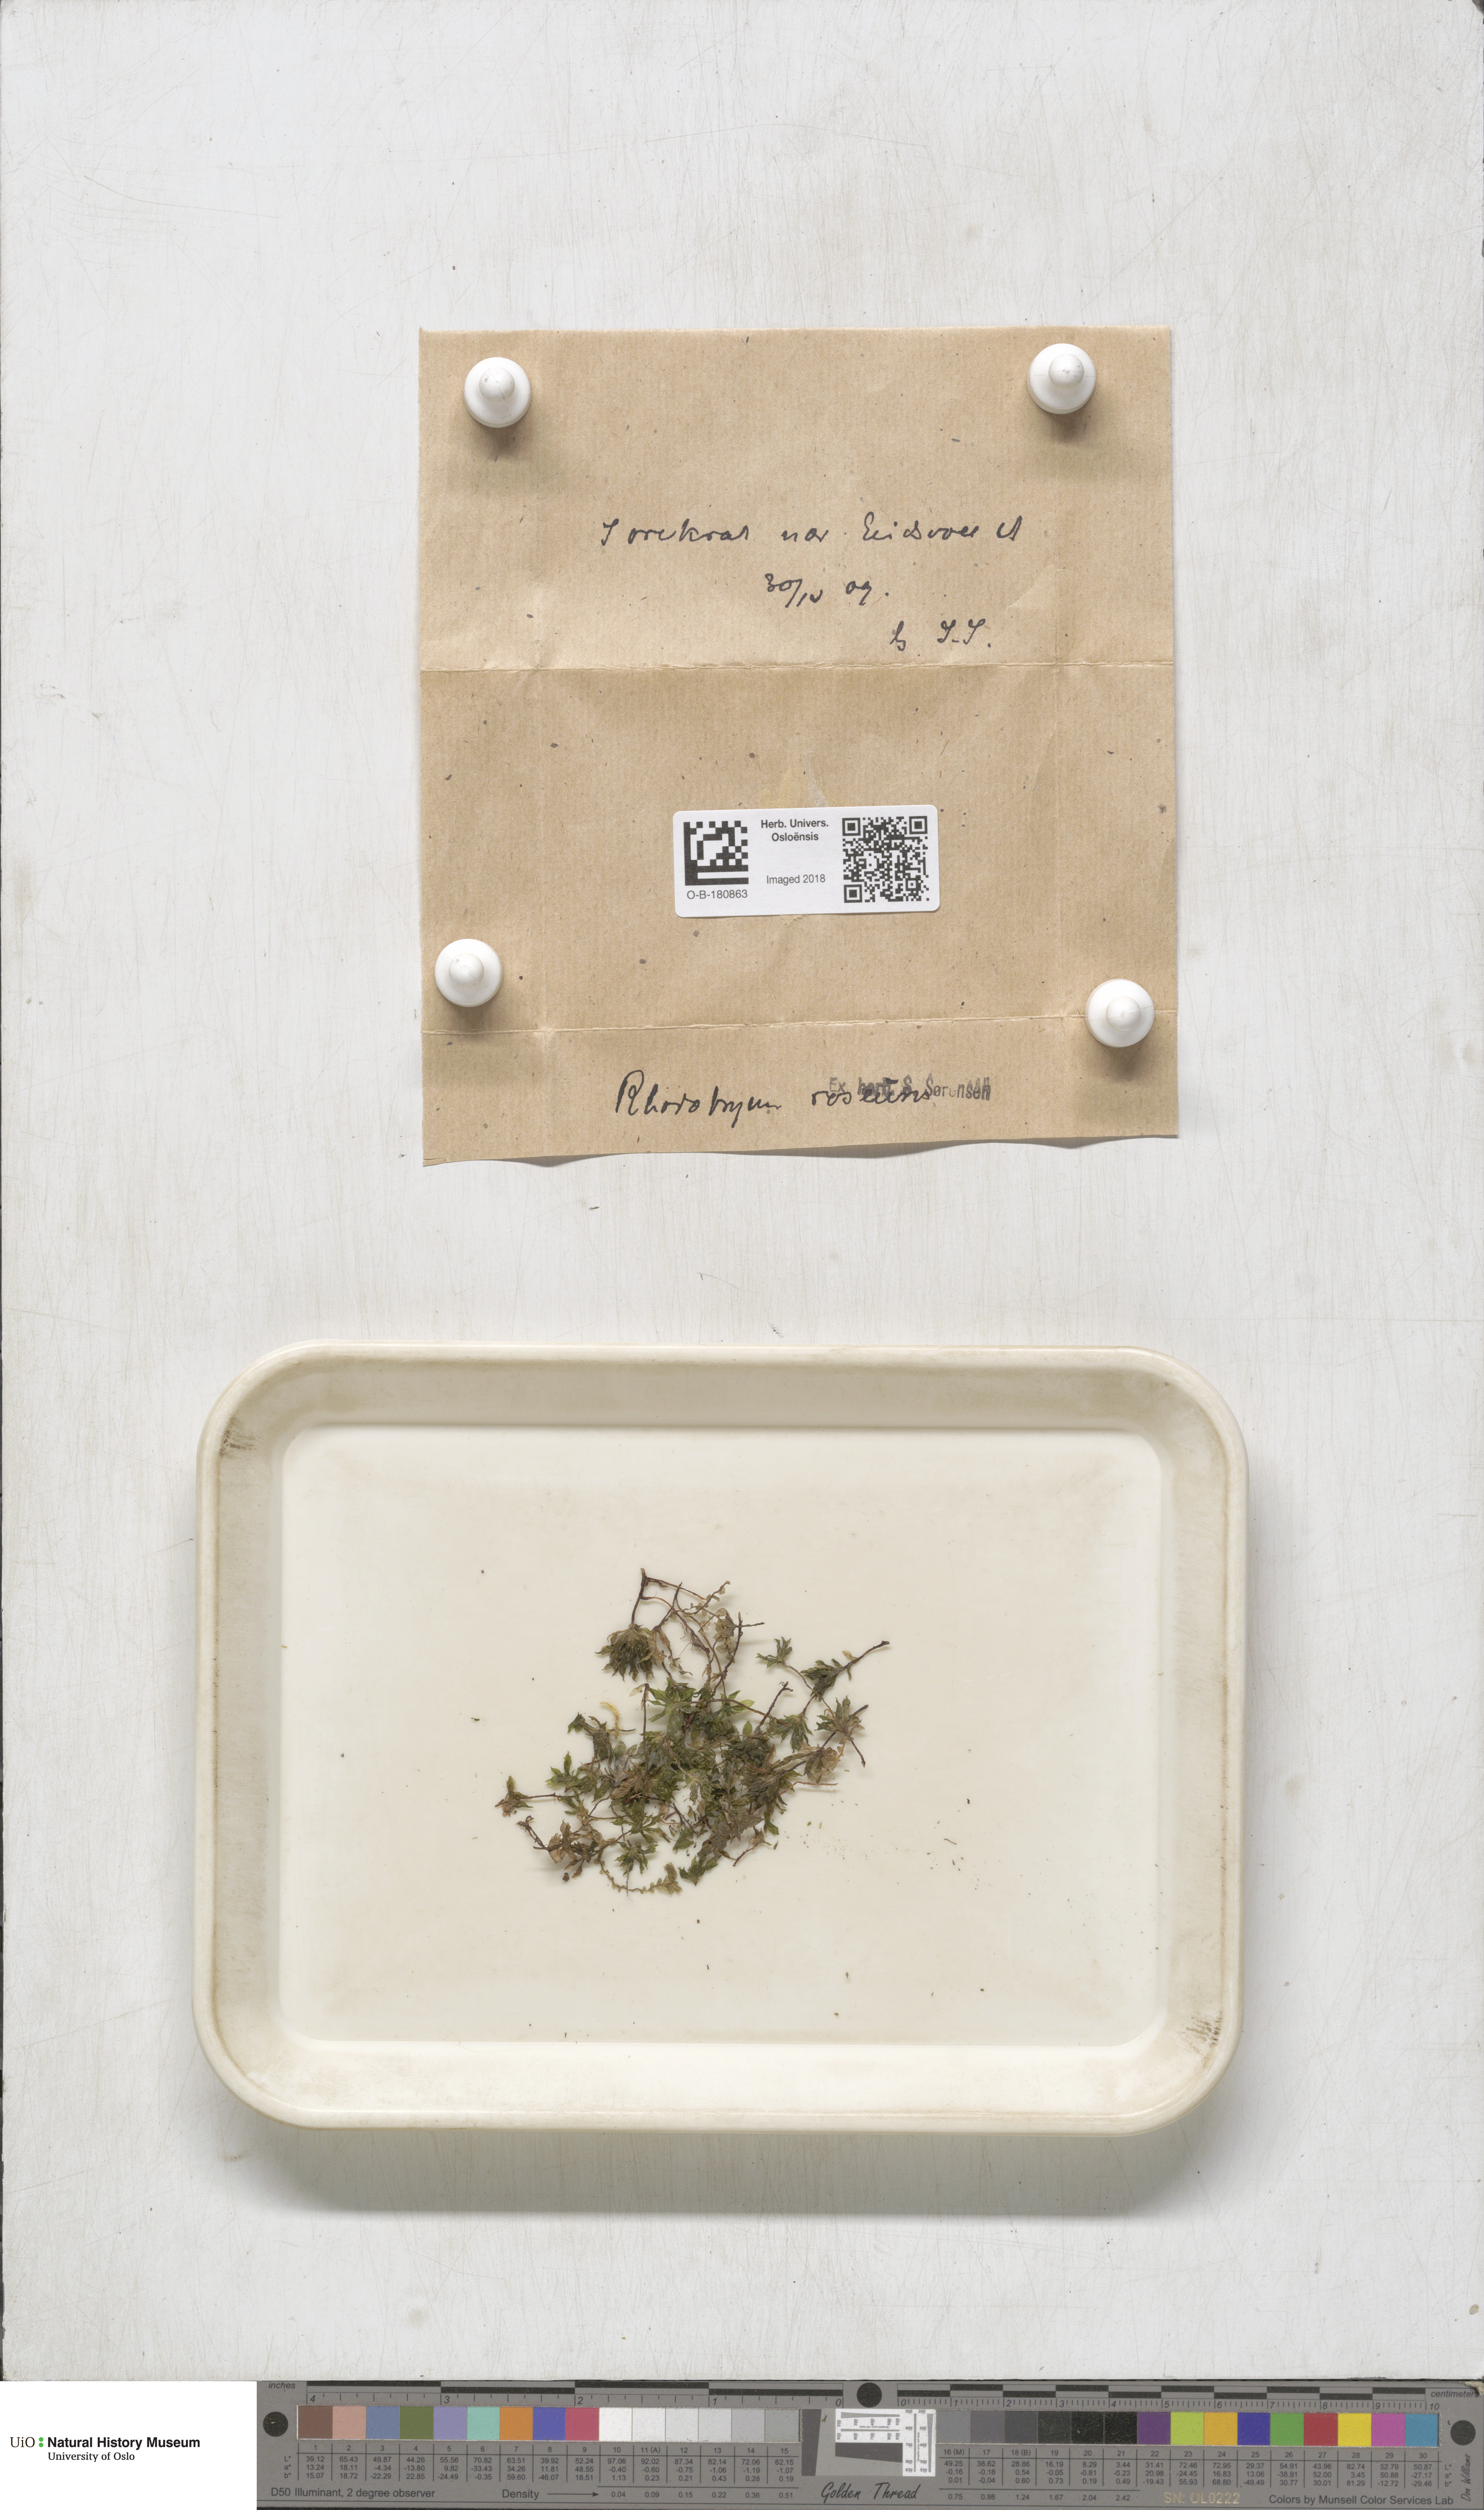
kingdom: Plantae
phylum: Bryophyta
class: Bryopsida
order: Bryales
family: Bryaceae
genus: Rhodobryum
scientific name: Rhodobryum roseum
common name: Rose-moss
